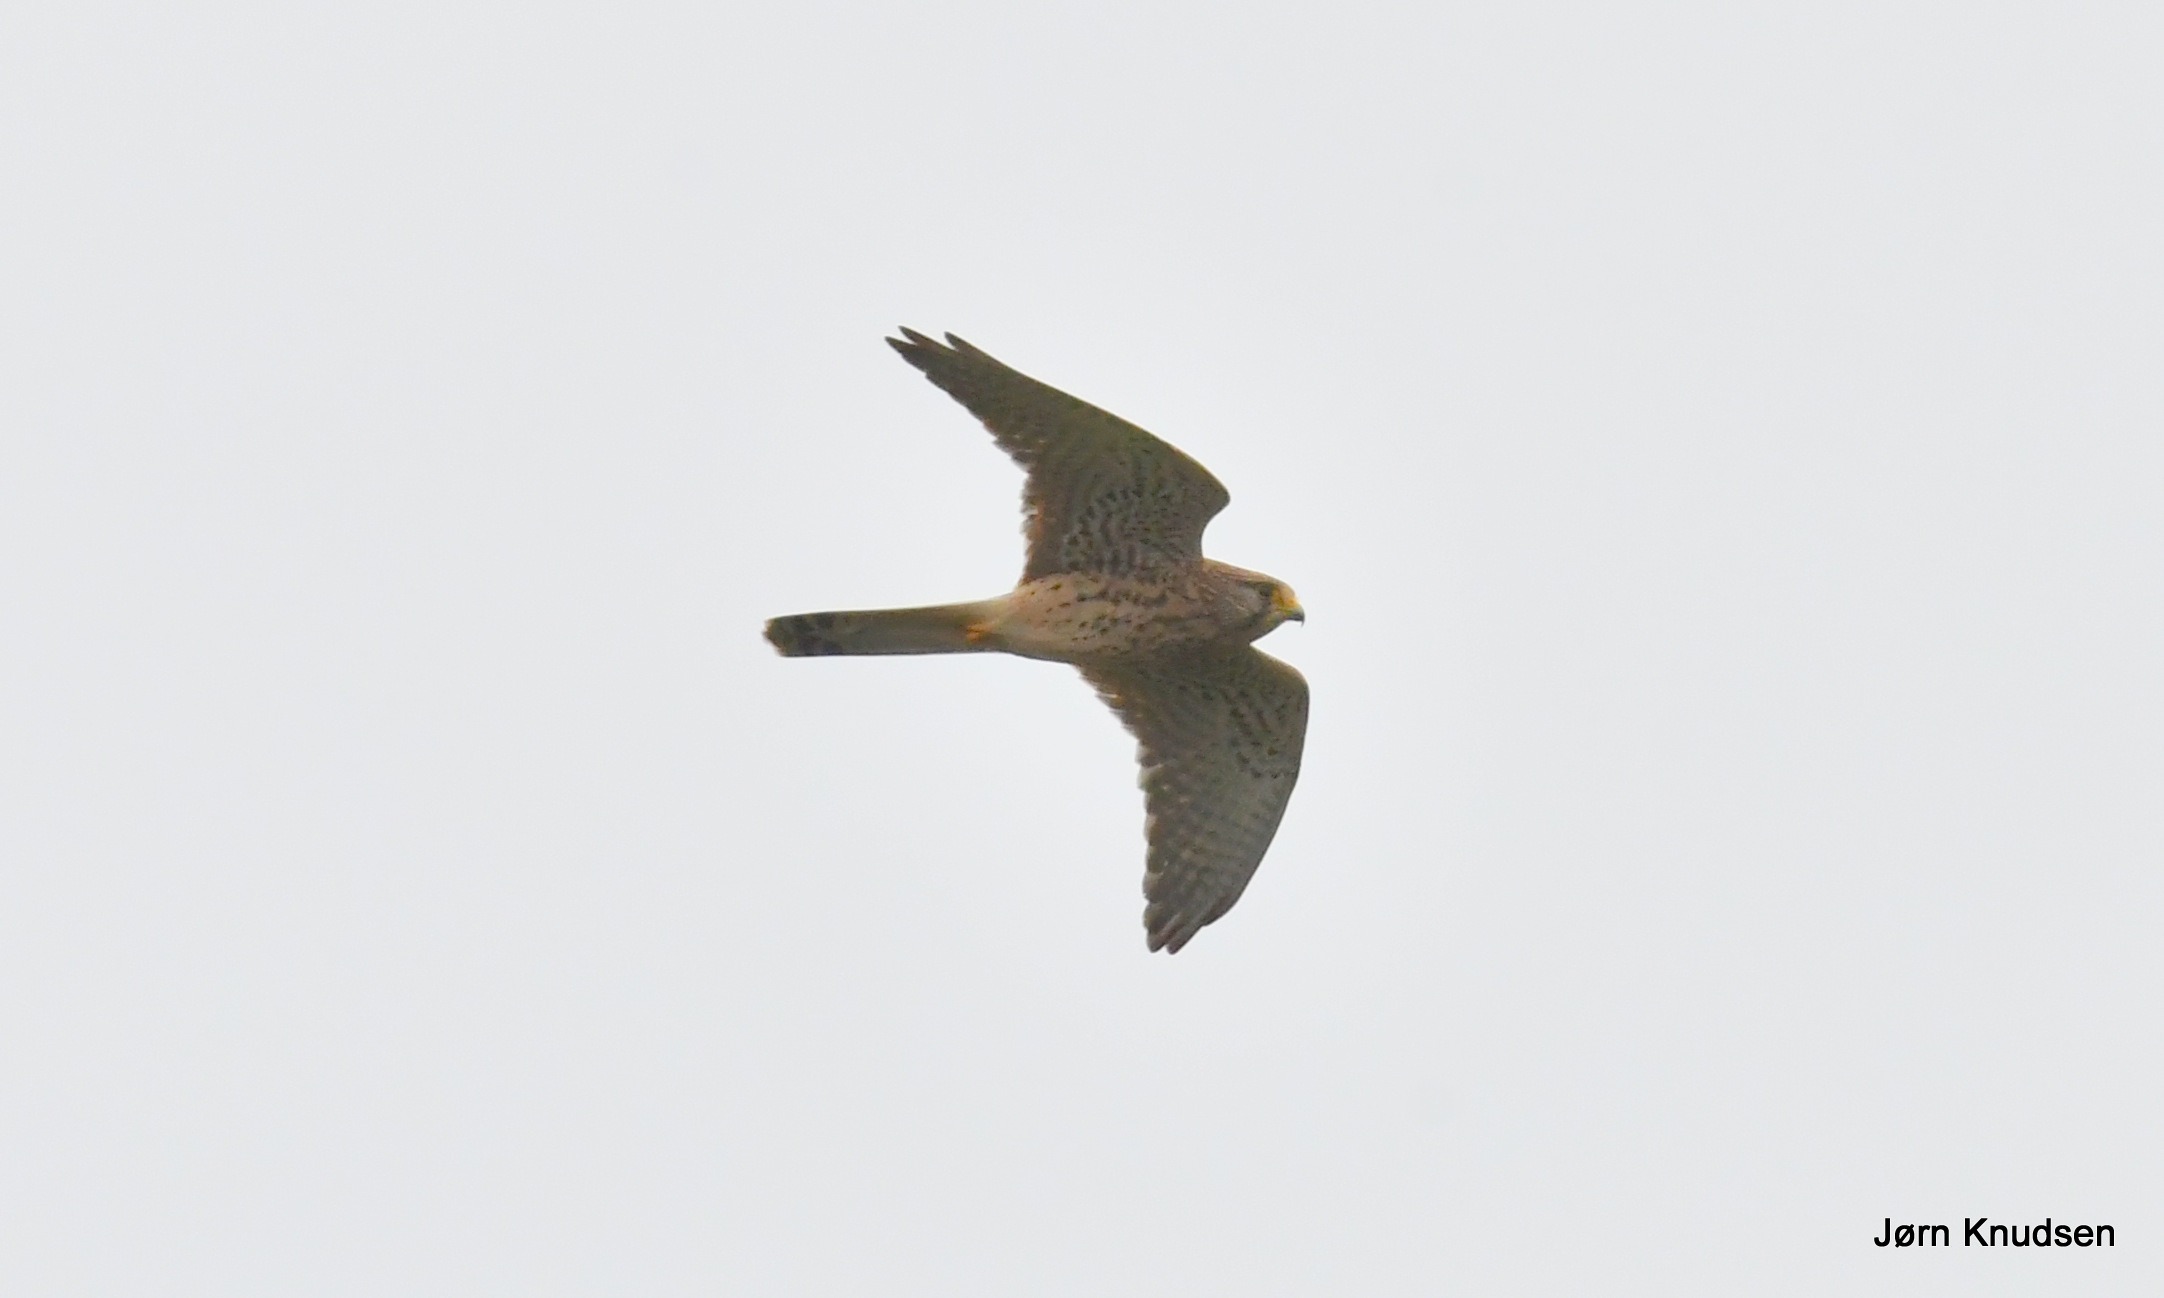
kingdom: Animalia
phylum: Chordata
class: Aves
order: Falconiformes
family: Falconidae
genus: Falco
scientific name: Falco tinnunculus
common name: Tårnfalk
